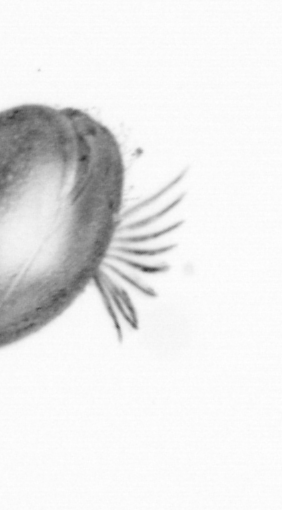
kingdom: Chromista
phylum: Ochrophyta
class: Bacillariophyceae
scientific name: Bacillariophyceae
